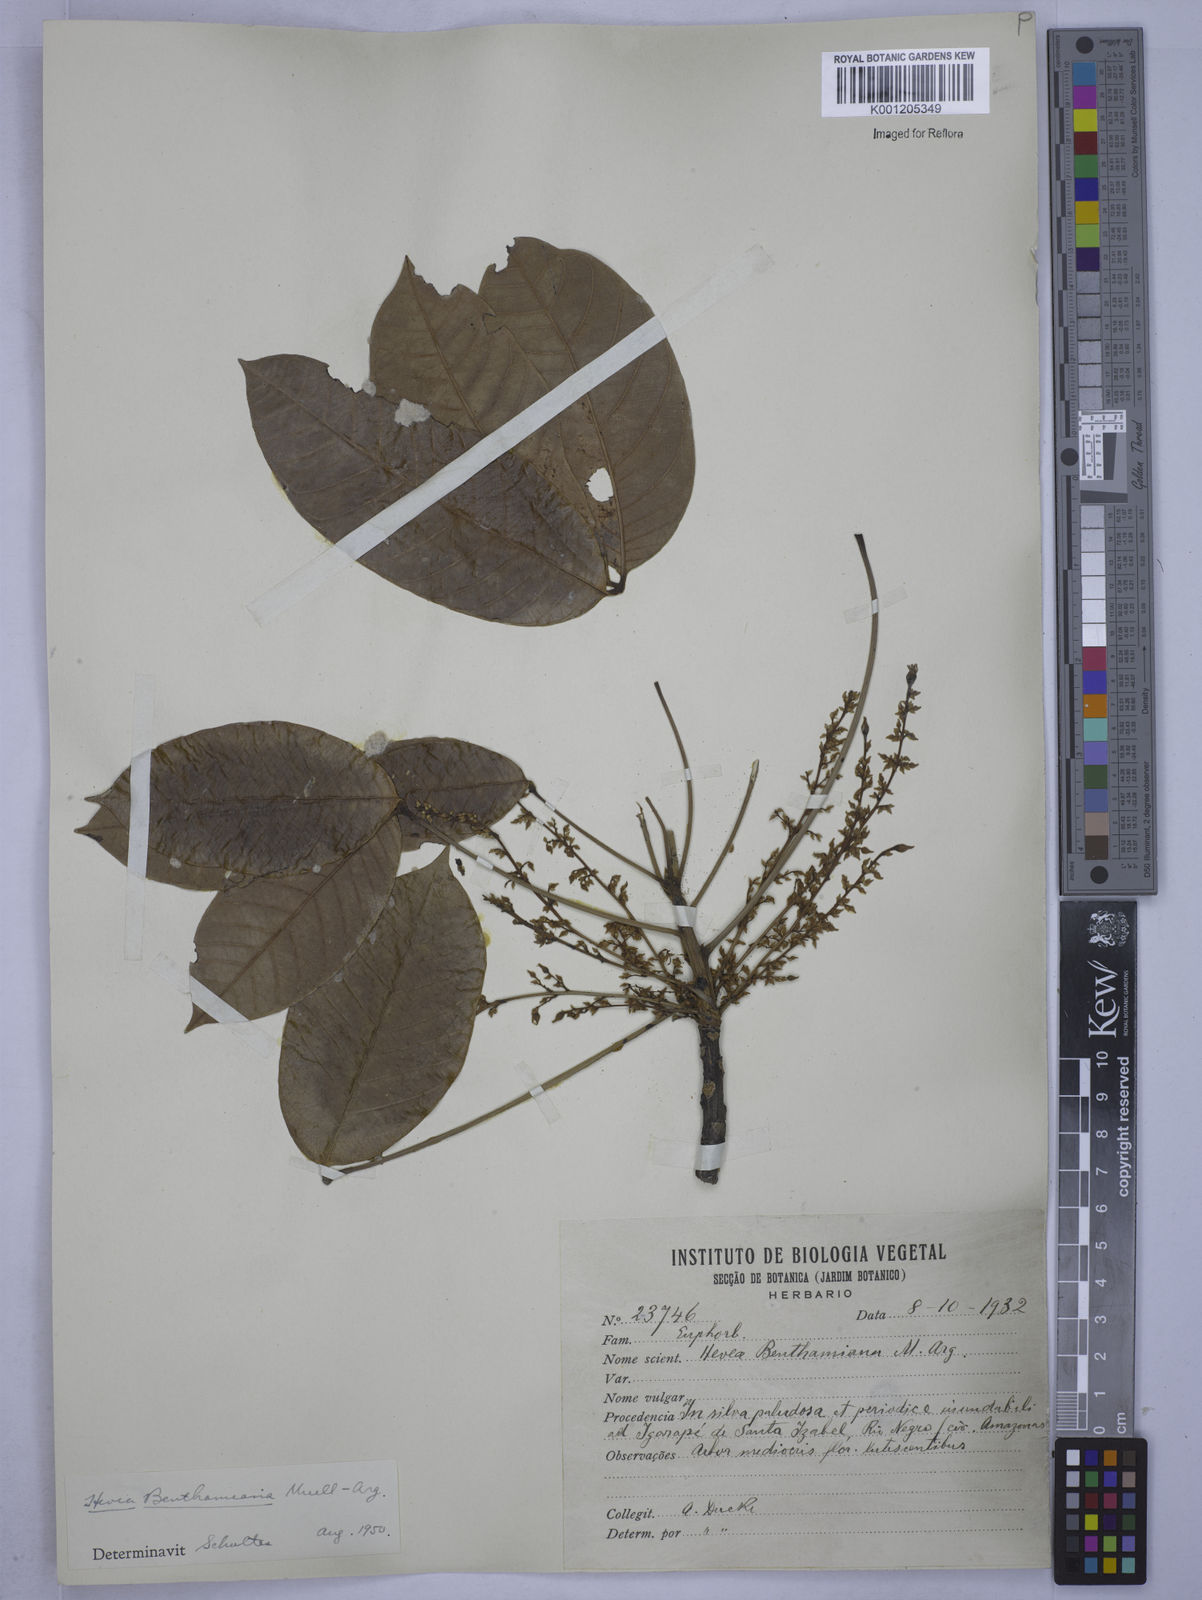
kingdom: Plantae
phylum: Tracheophyta
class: Magnoliopsida
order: Malpighiales
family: Euphorbiaceae
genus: Hevea
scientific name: Hevea
